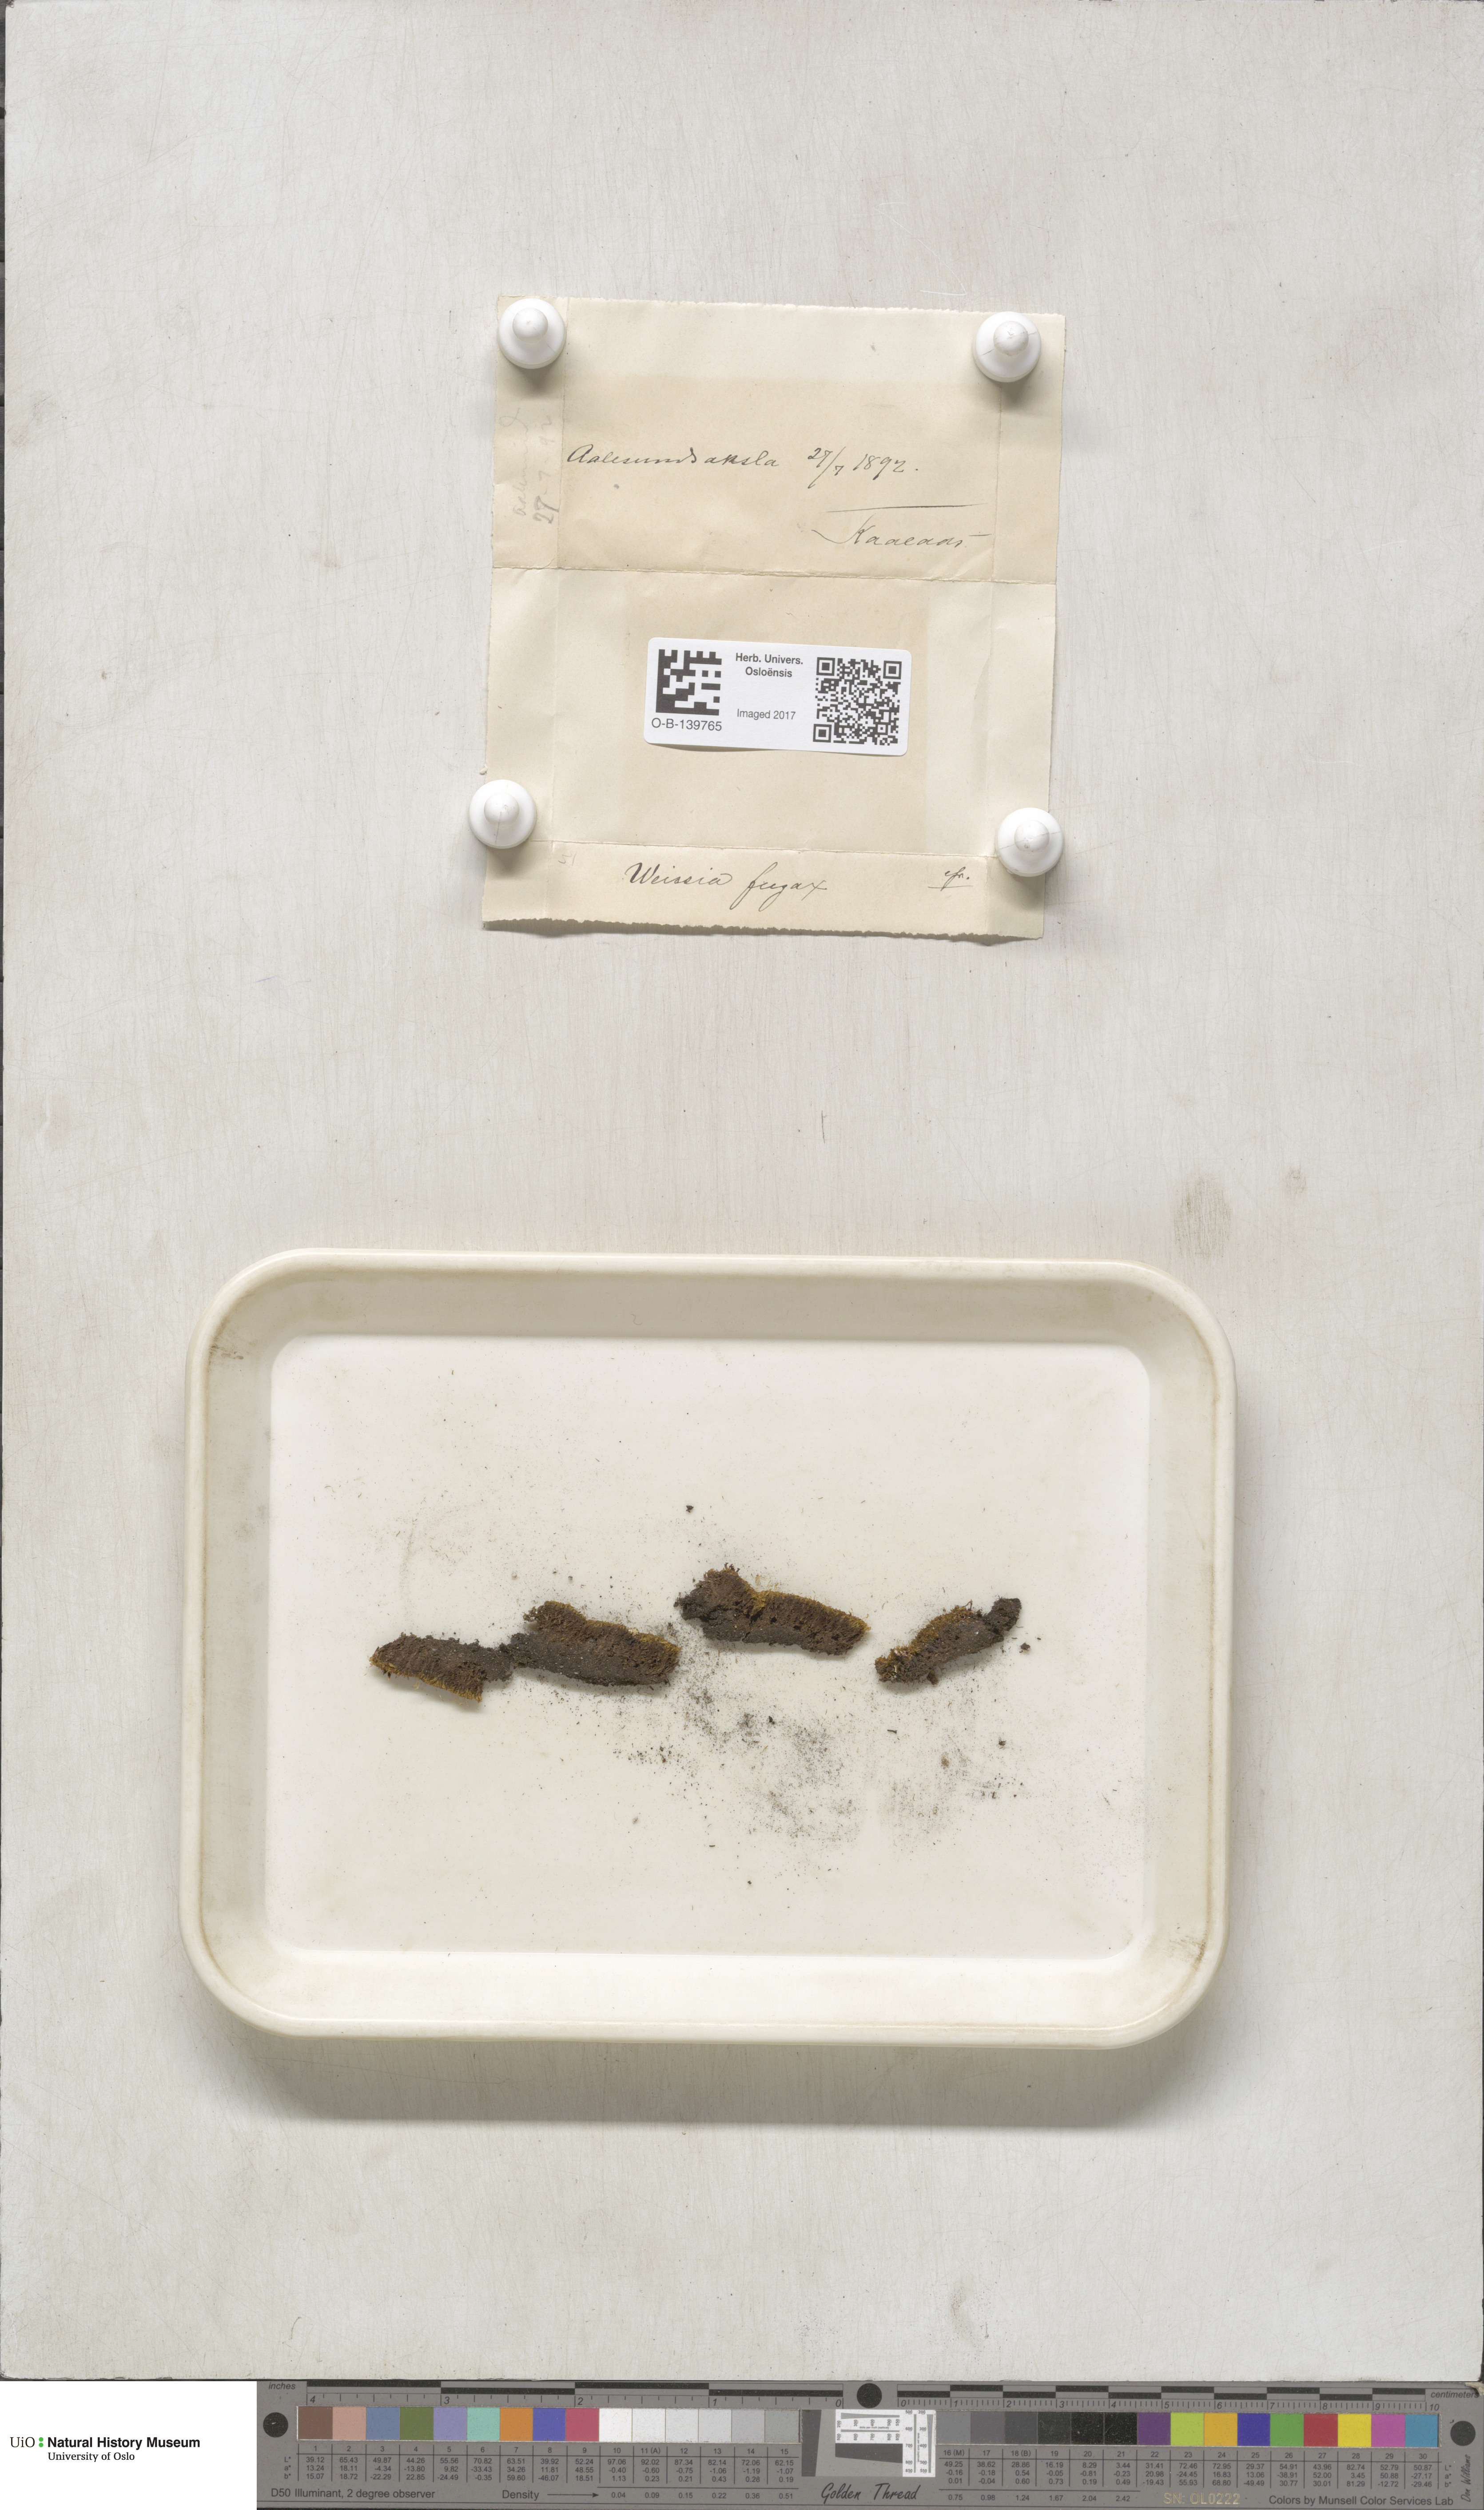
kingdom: Plantae
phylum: Bryophyta
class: Bryopsida
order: Dicranales
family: Rhabdoweisiaceae
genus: Rhabdoweisia
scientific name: Rhabdoweisia fugax
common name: Dwarf streak-moss
